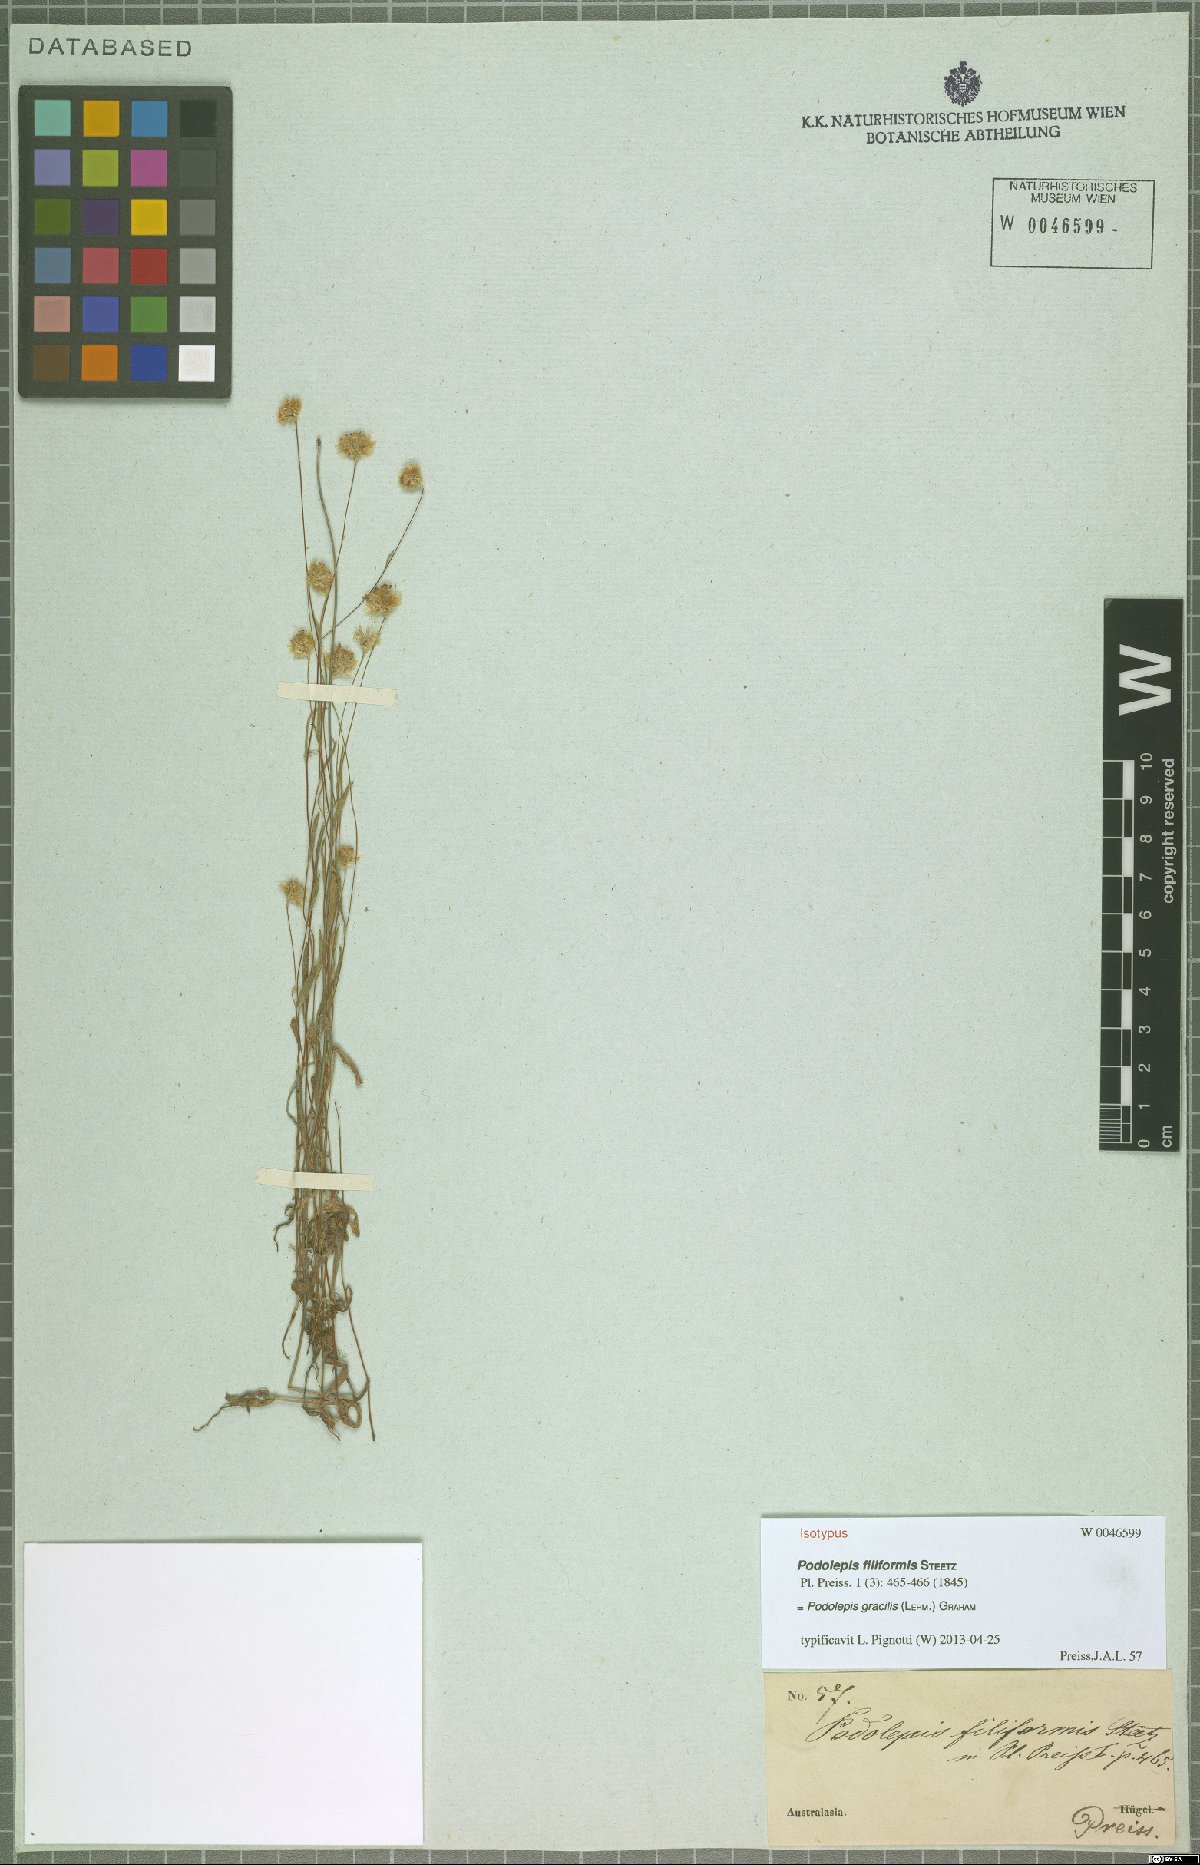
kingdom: Plantae
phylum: Tracheophyta
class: Magnoliopsida
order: Asterales
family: Asteraceae
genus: Podolepis
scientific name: Podolepis gracilis
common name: Slender podolepis
